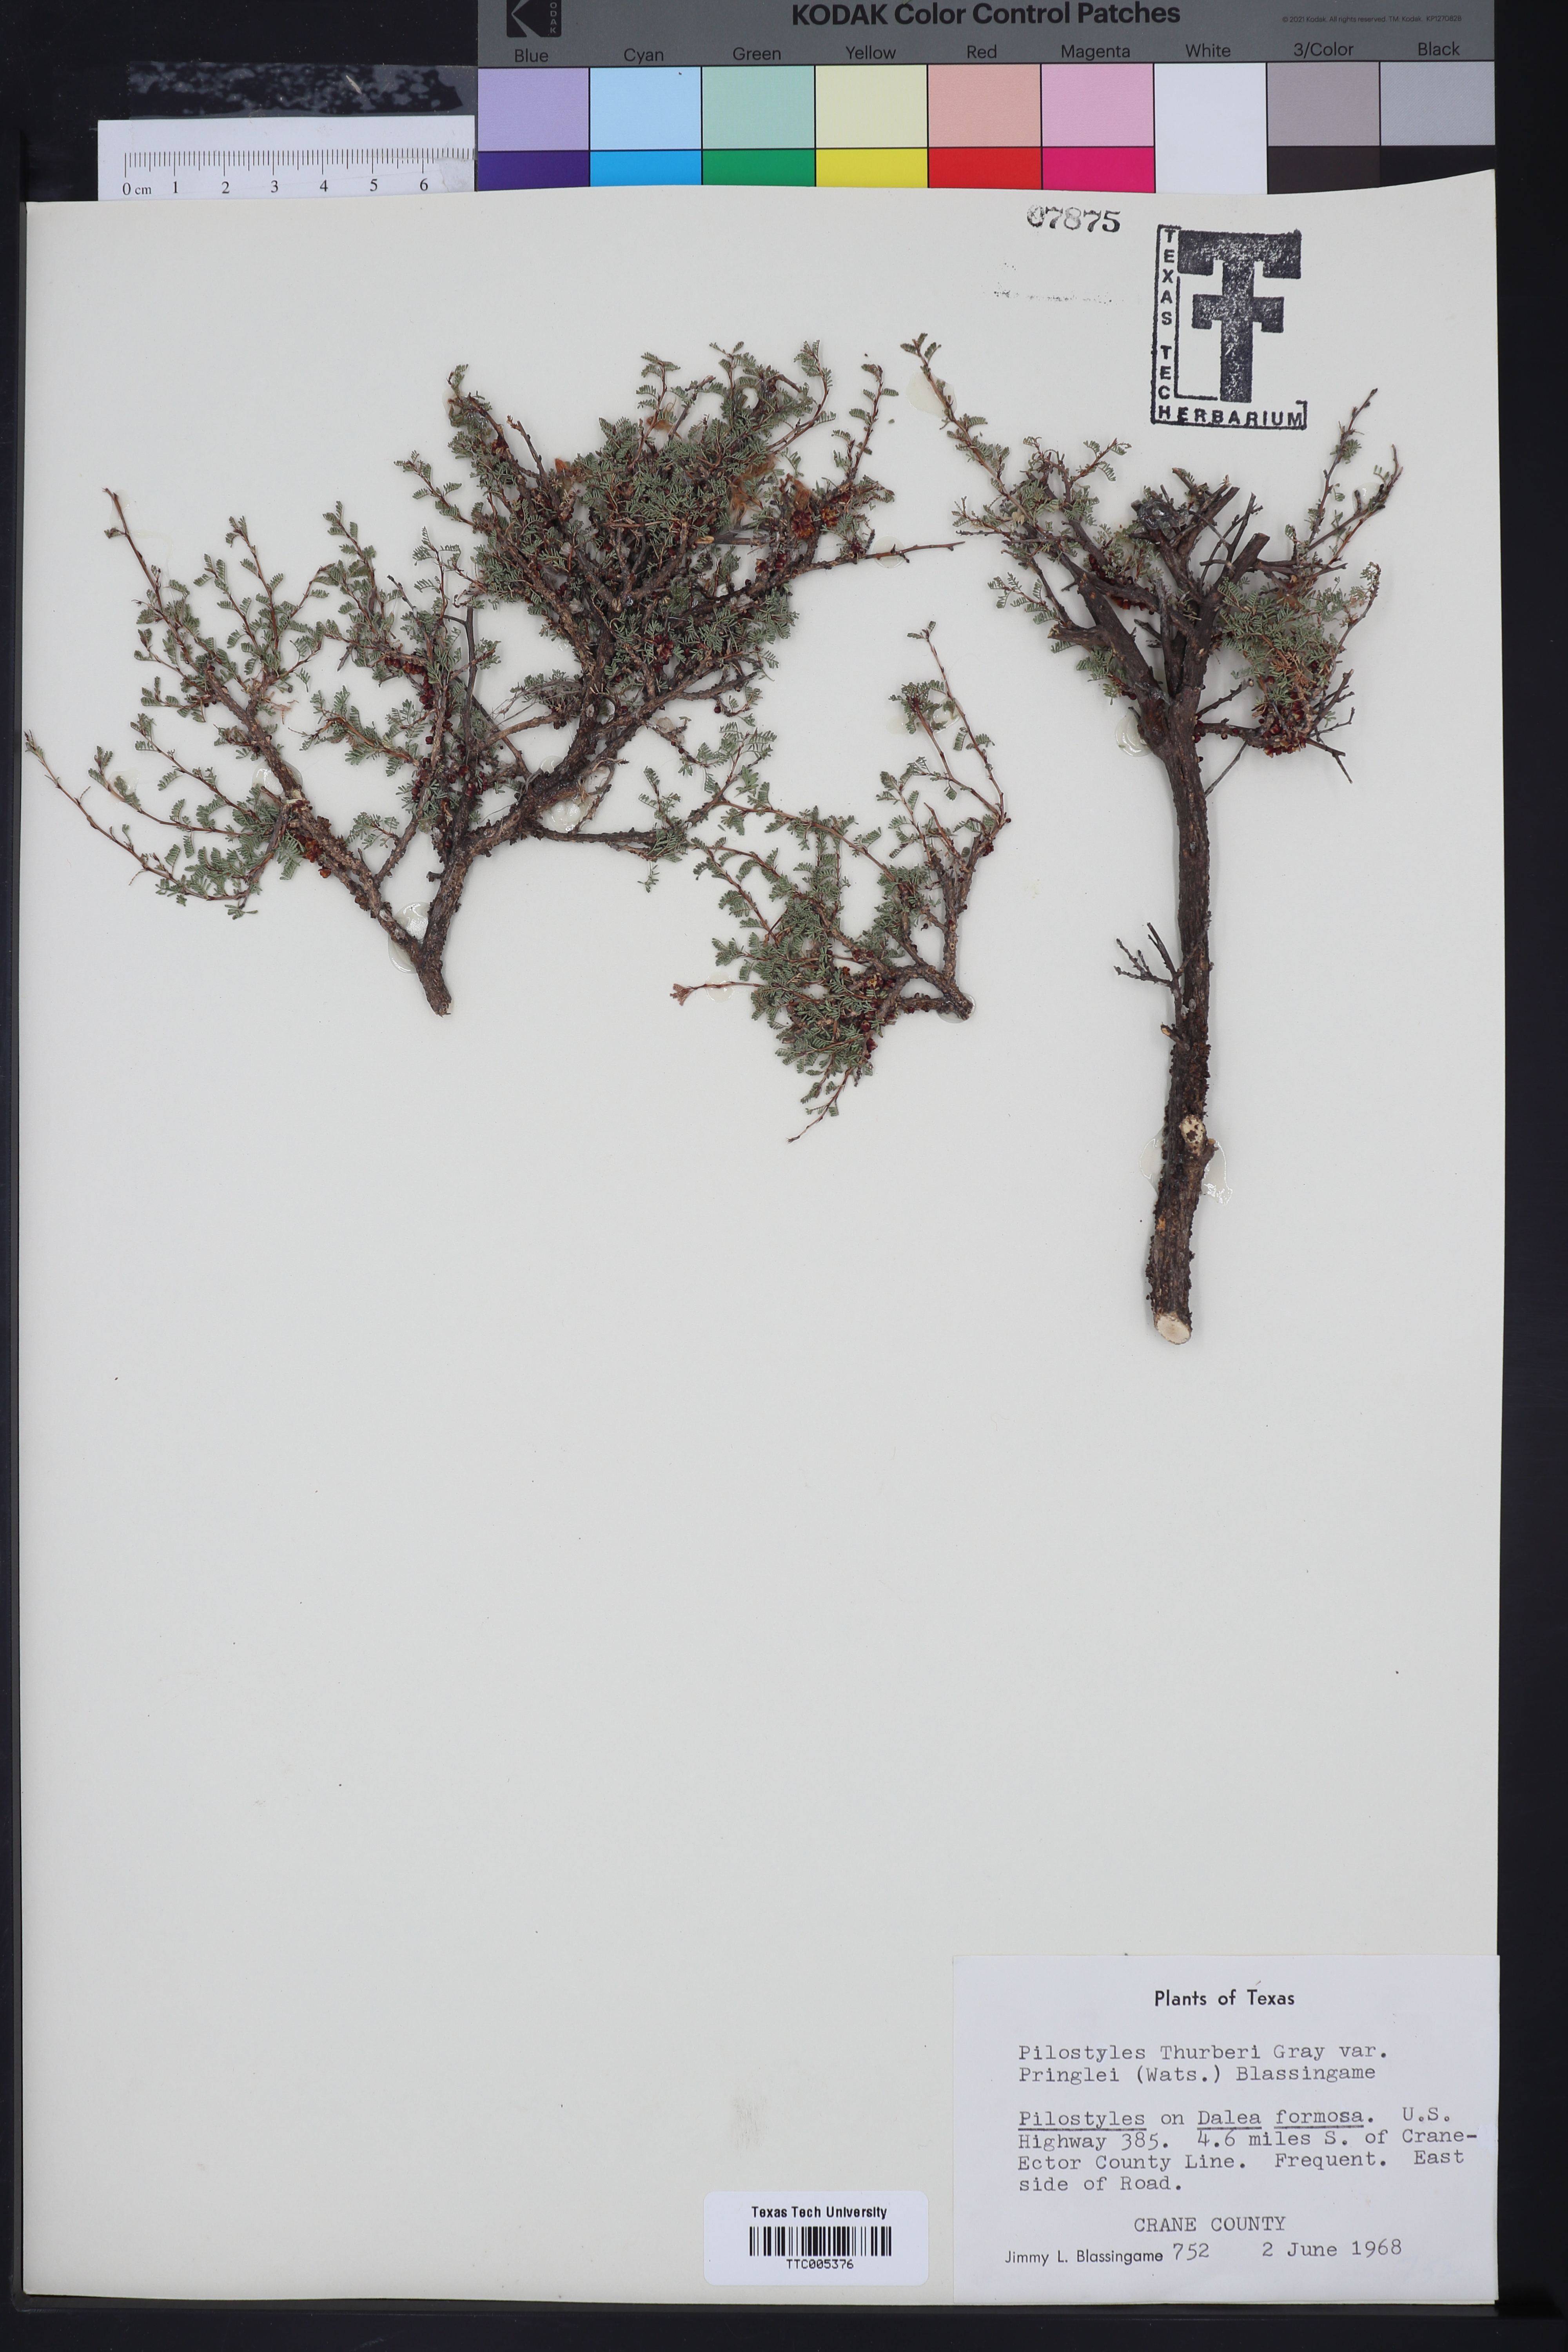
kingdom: Plantae
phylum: Tracheophyta
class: Magnoliopsida
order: Cucurbitales
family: Apodanthaceae
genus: Pilostyles
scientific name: Pilostyles thurberi
